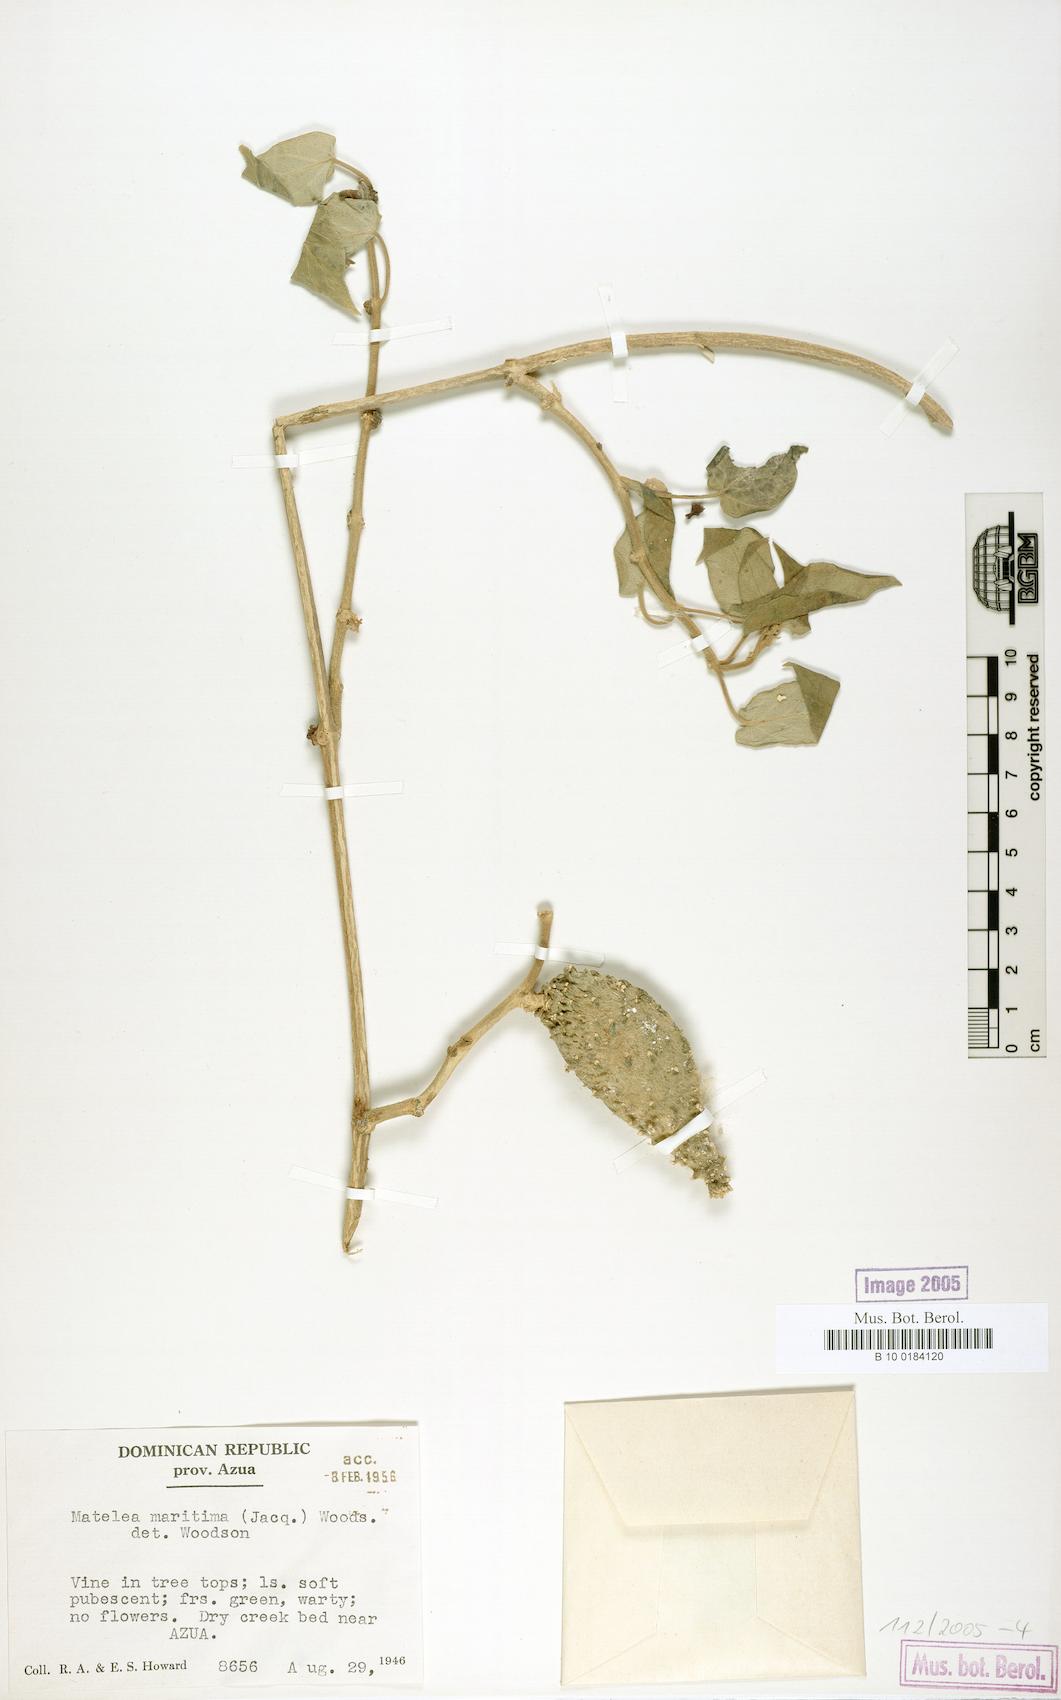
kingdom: Plantae
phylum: Tracheophyta
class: Magnoliopsida
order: Gentianales
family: Apocynaceae
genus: Ibatia
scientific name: Ibatia maritima
